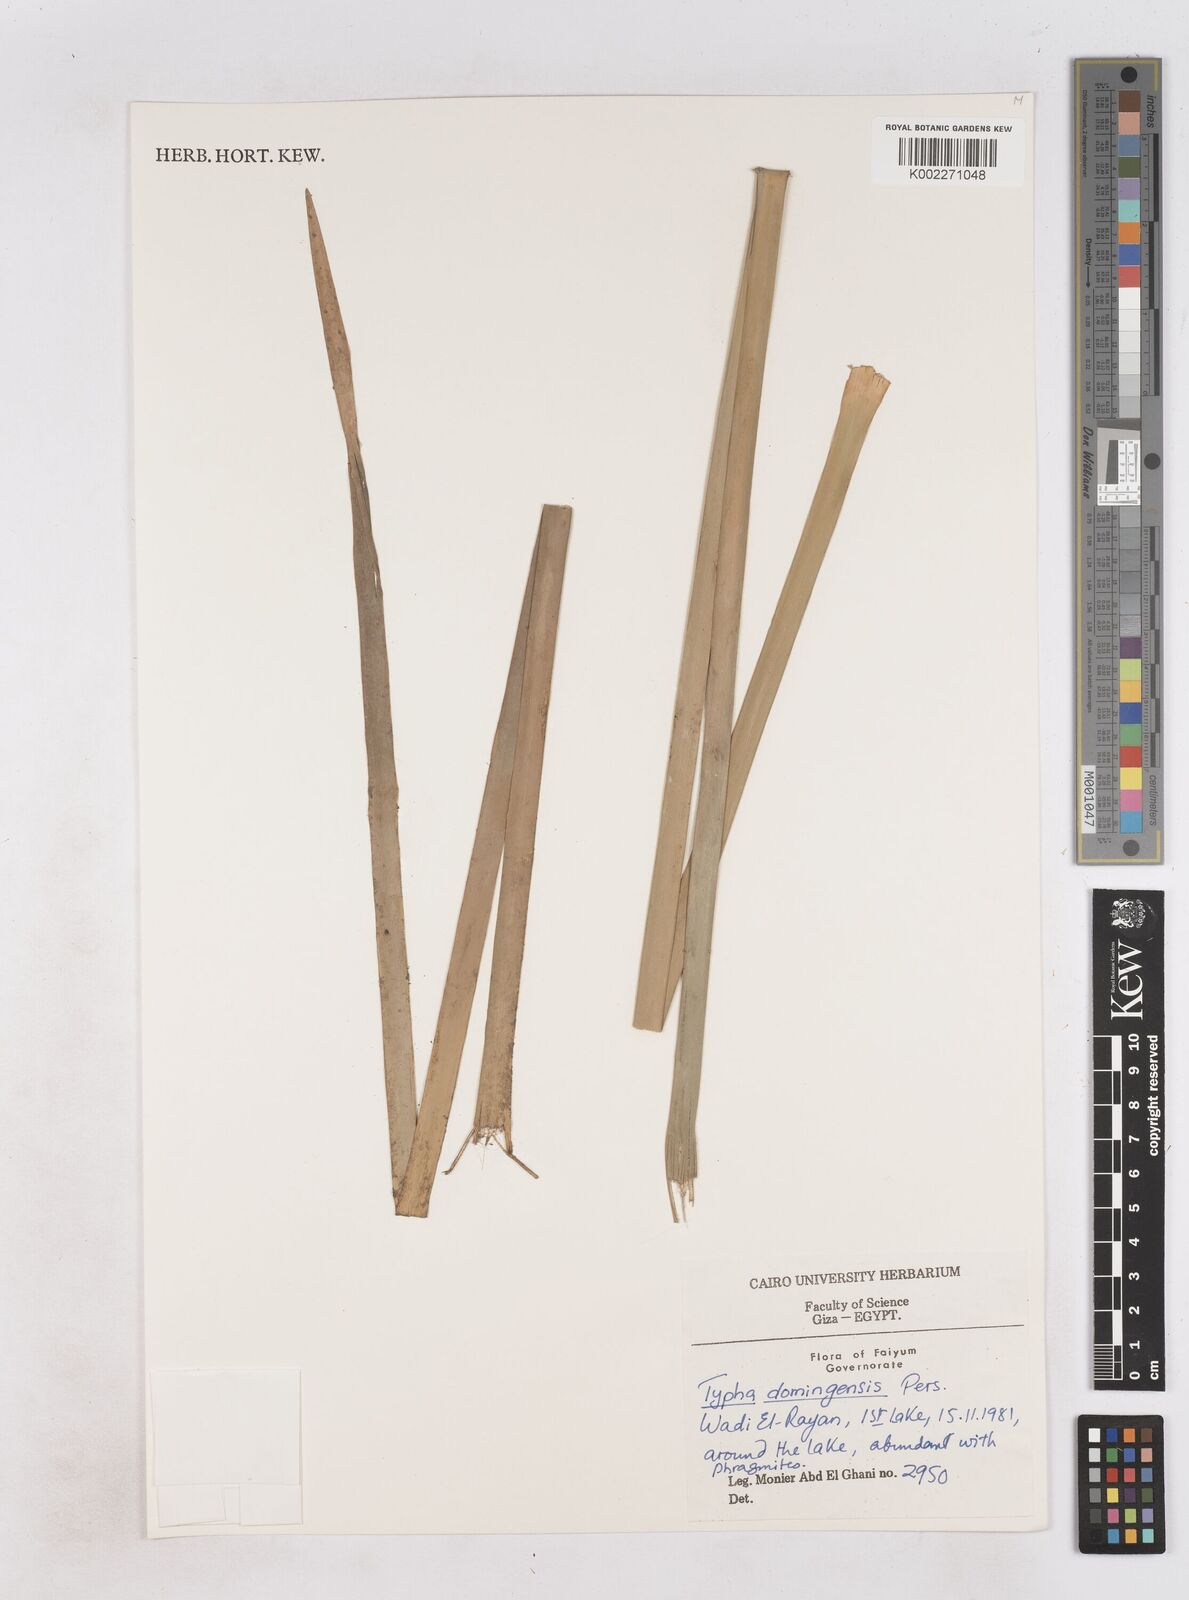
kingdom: Plantae
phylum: Tracheophyta
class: Liliopsida
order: Poales
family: Typhaceae
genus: Typha
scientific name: Typha domingensis
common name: Southern cattail
